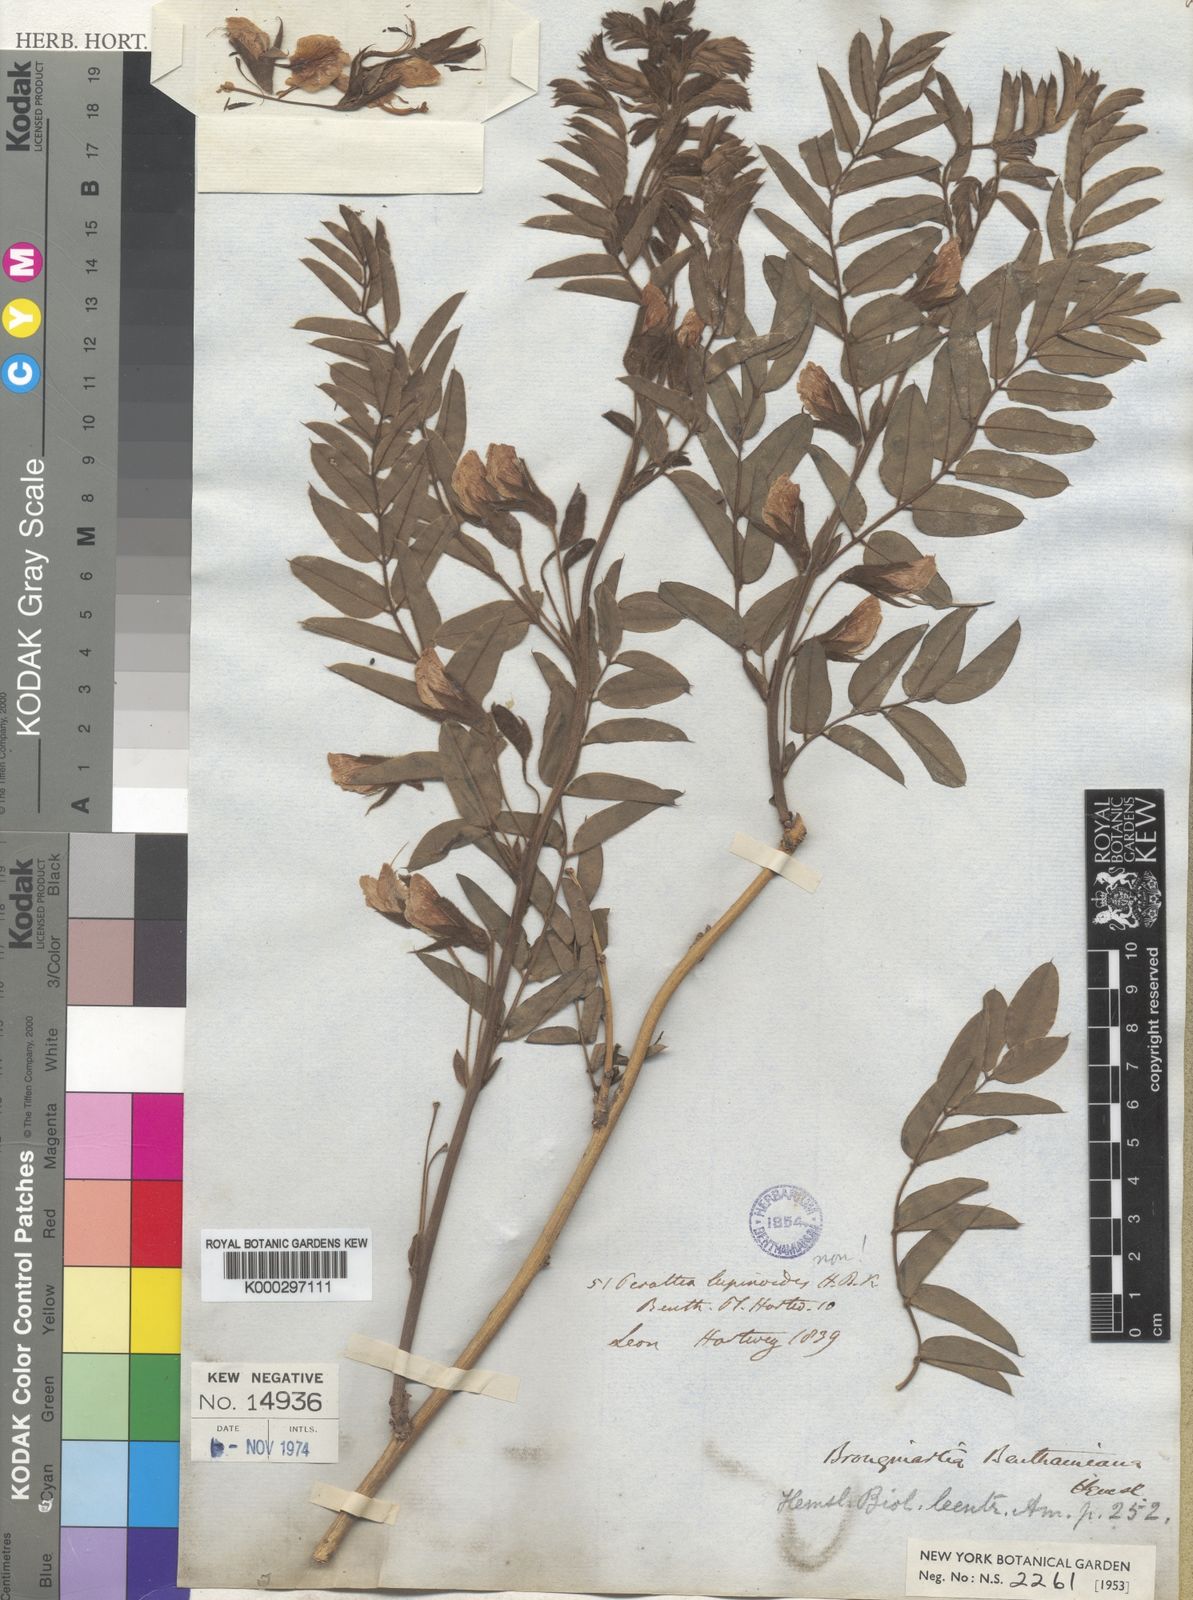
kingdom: Plantae
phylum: Tracheophyta
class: Magnoliopsida
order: Fabales
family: Fabaceae
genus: Brongniartia
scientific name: Brongniartia benthamiana
